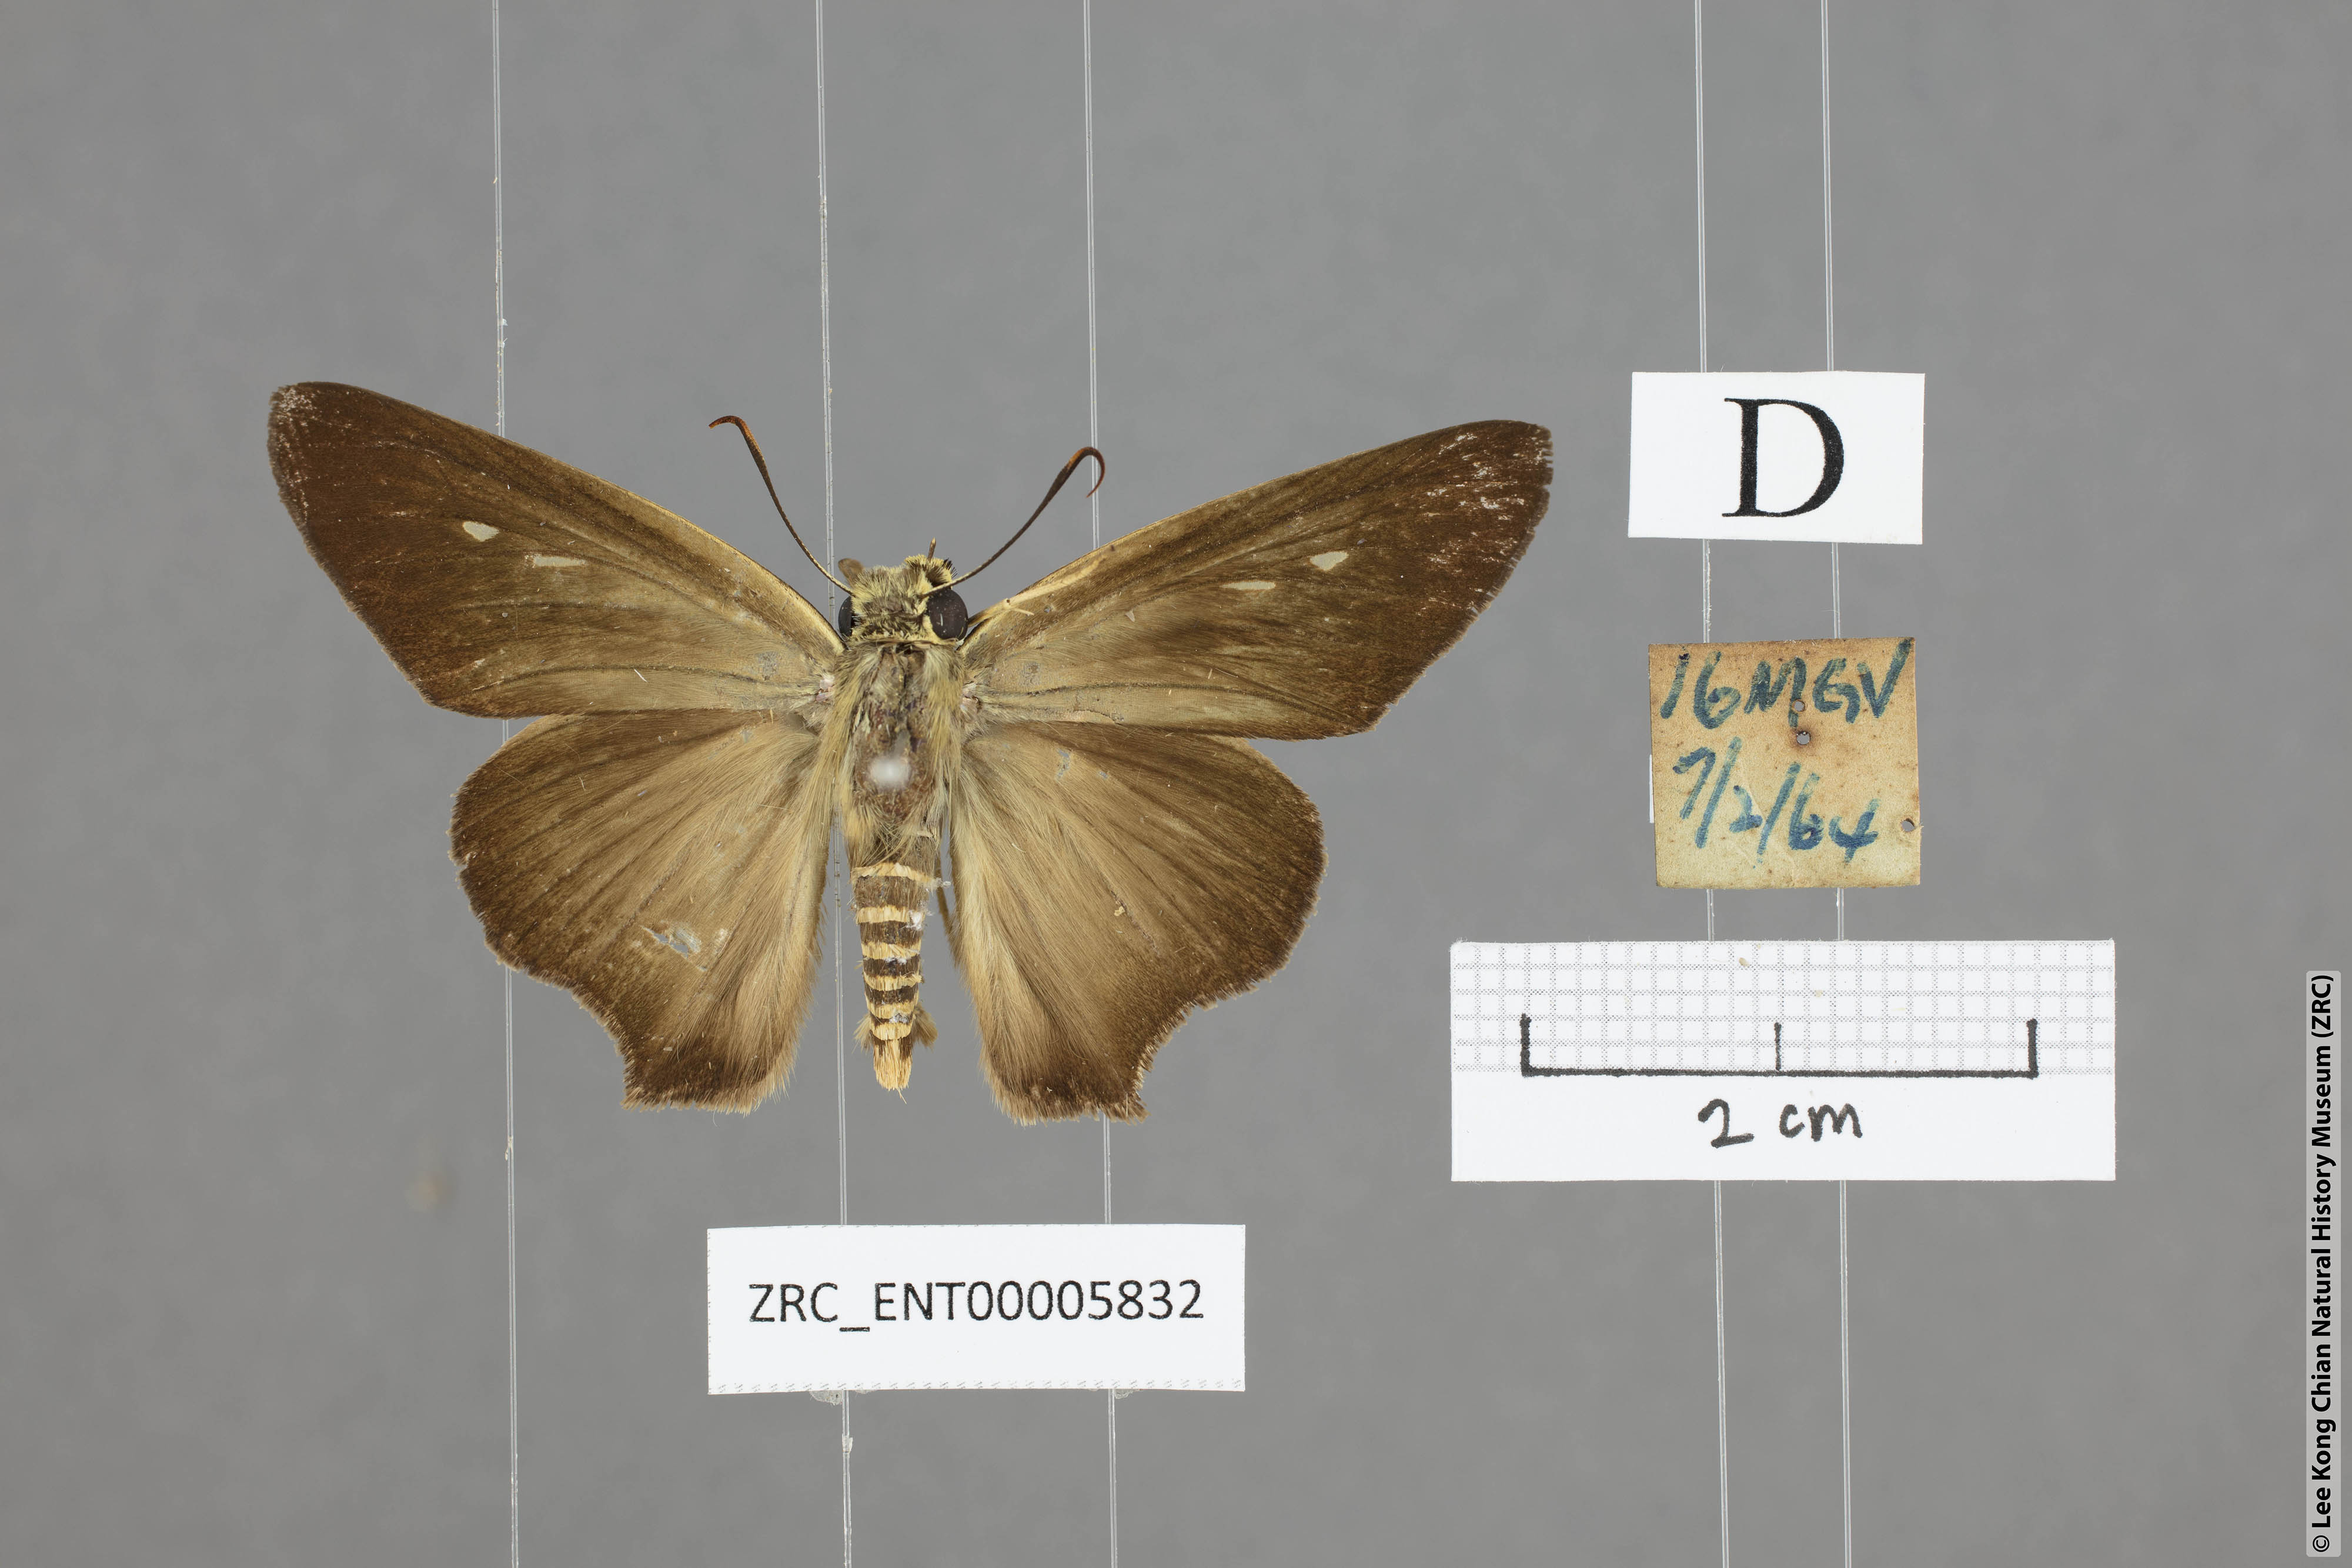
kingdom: Animalia
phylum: Arthropoda
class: Insecta
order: Lepidoptera
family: Hesperiidae
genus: Badamia
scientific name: Badamia exclamationis
